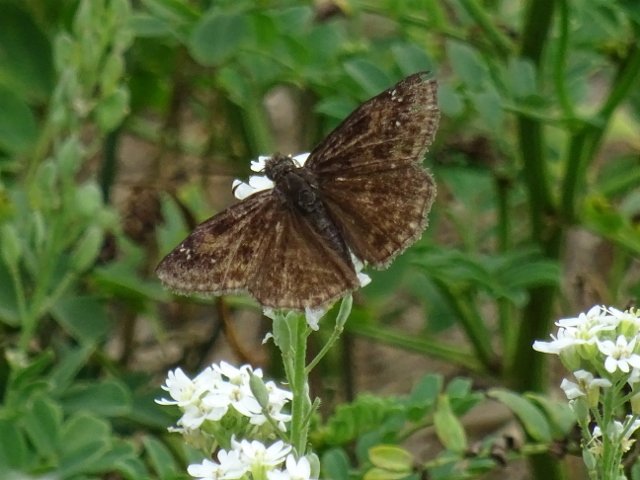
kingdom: Animalia
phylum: Arthropoda
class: Insecta
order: Lepidoptera
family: Hesperiidae
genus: Gesta
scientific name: Gesta
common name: Wild Indigo Duskywing
